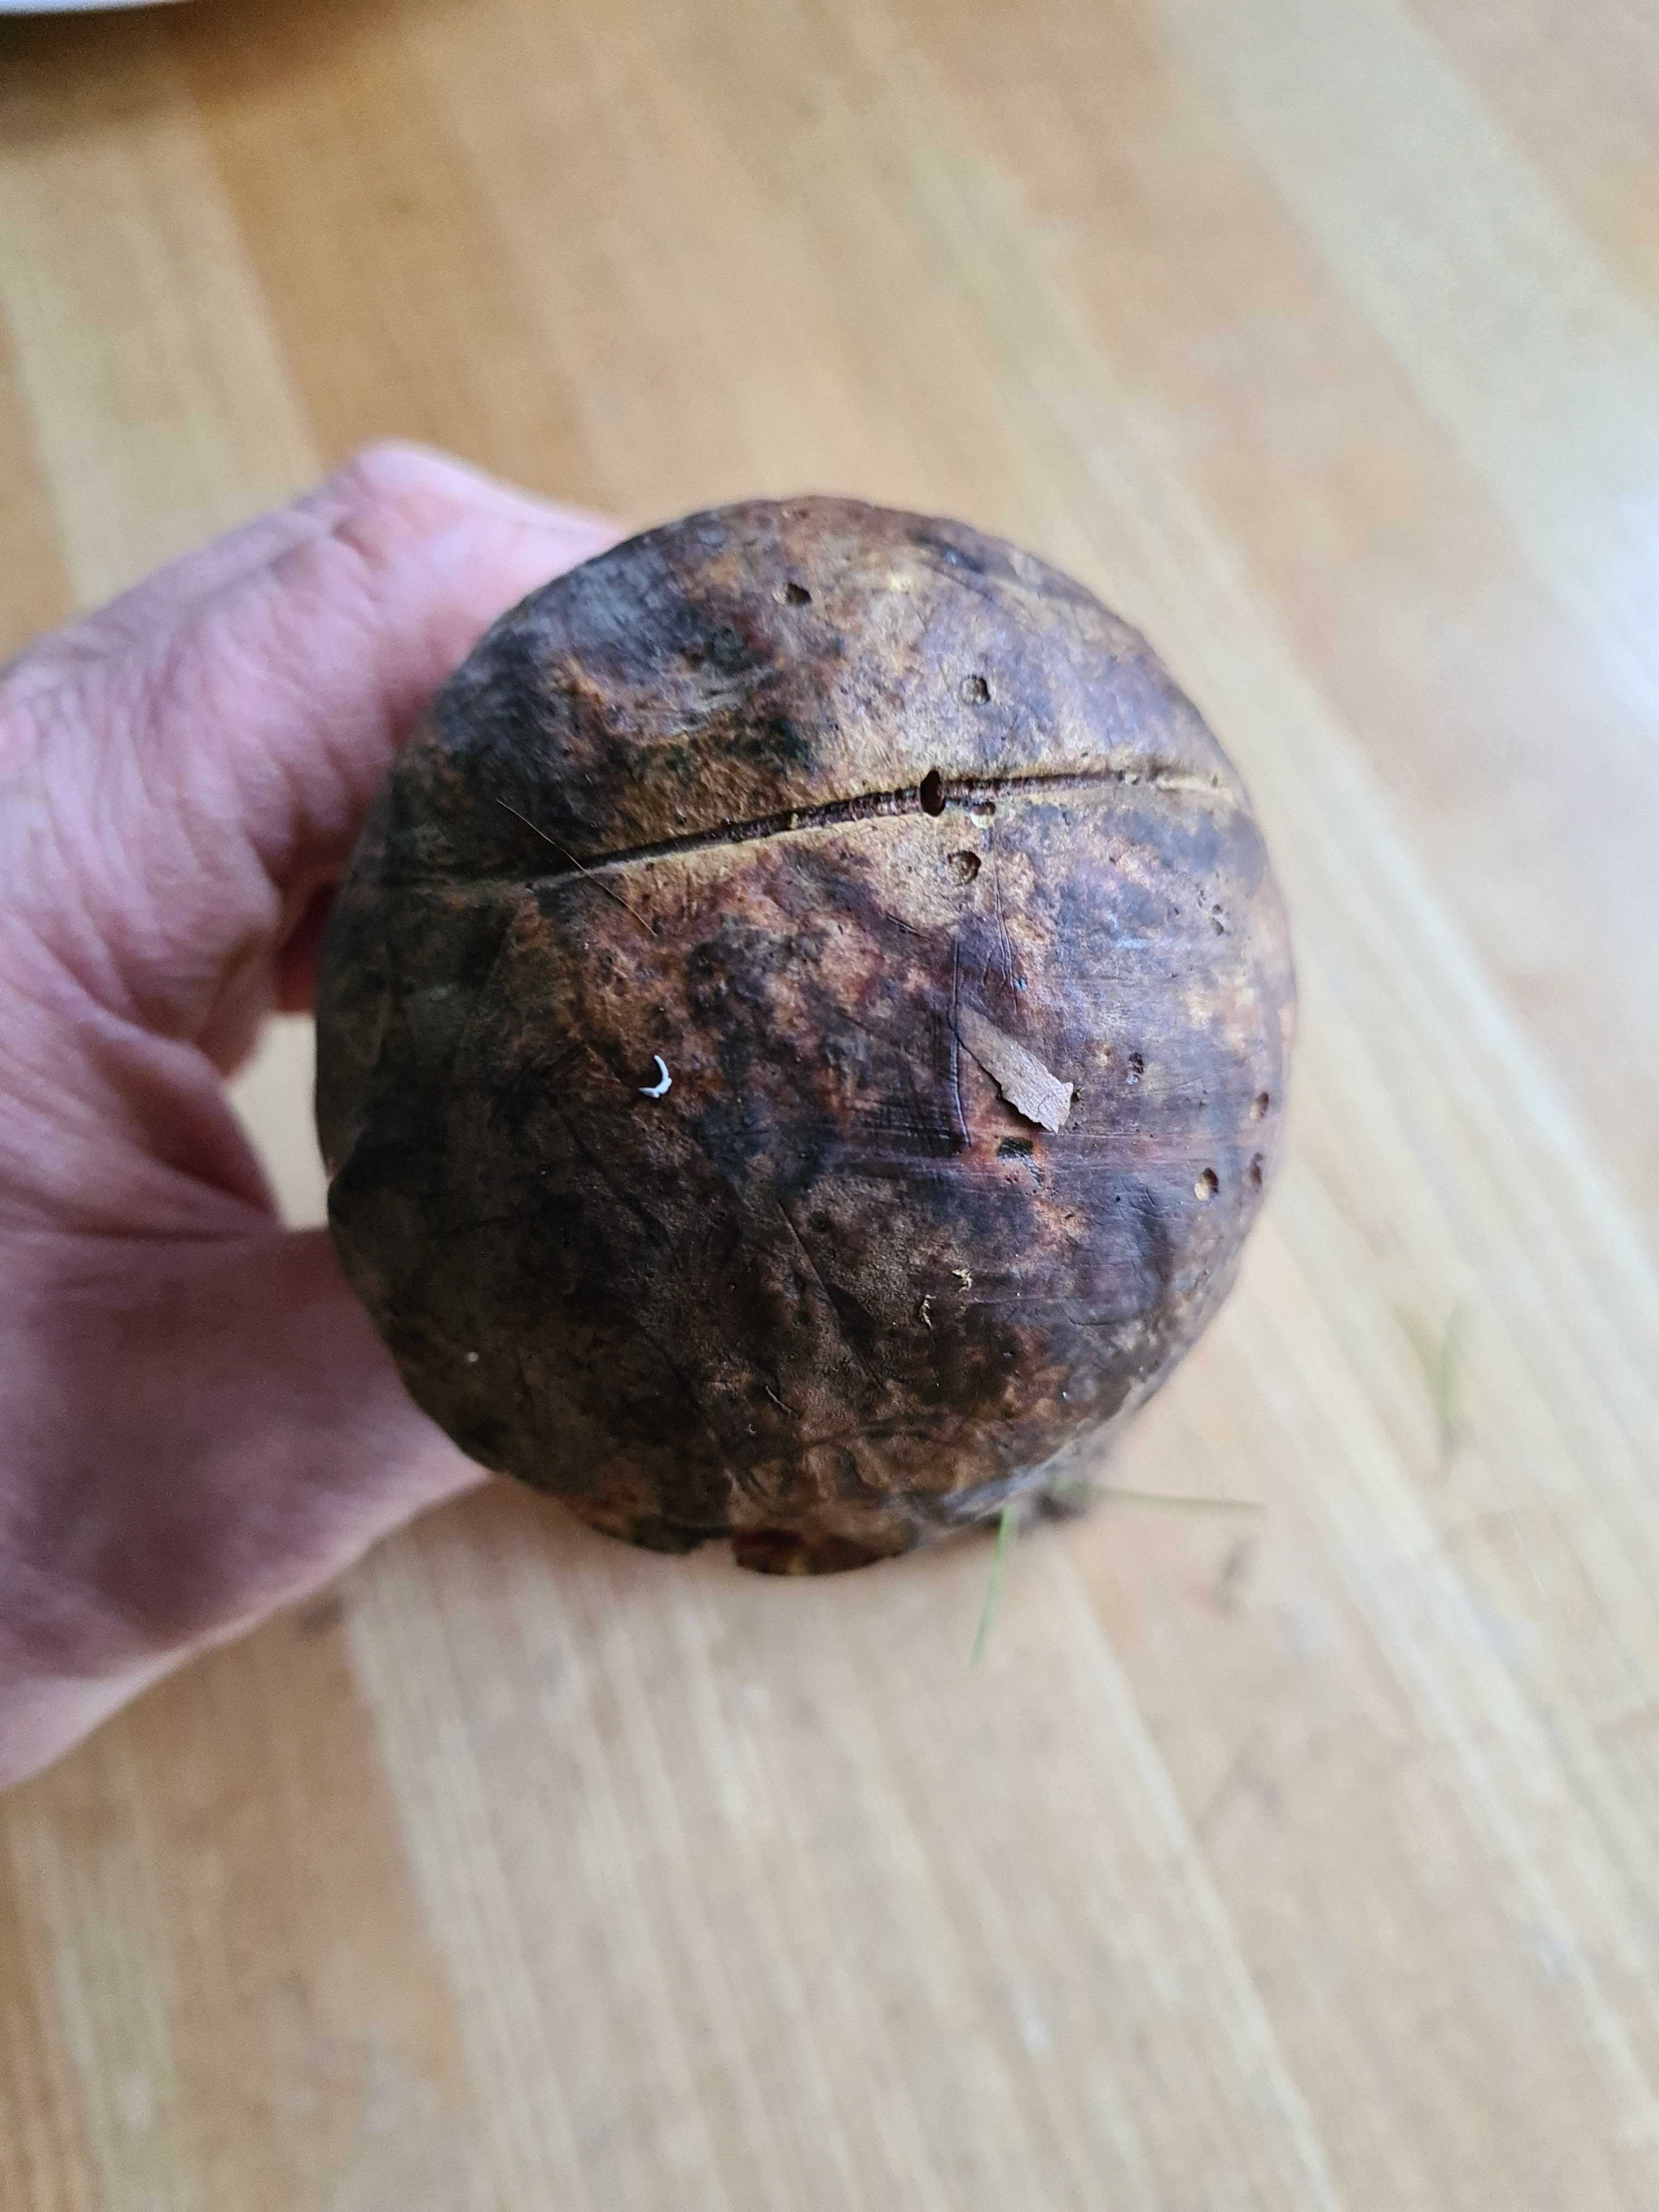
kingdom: Fungi
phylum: Basidiomycota
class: Agaricomycetes
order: Boletales
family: Boletaceae
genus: Neoboletus
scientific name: Neoboletus erythropus
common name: punktstokket indigorørhat
